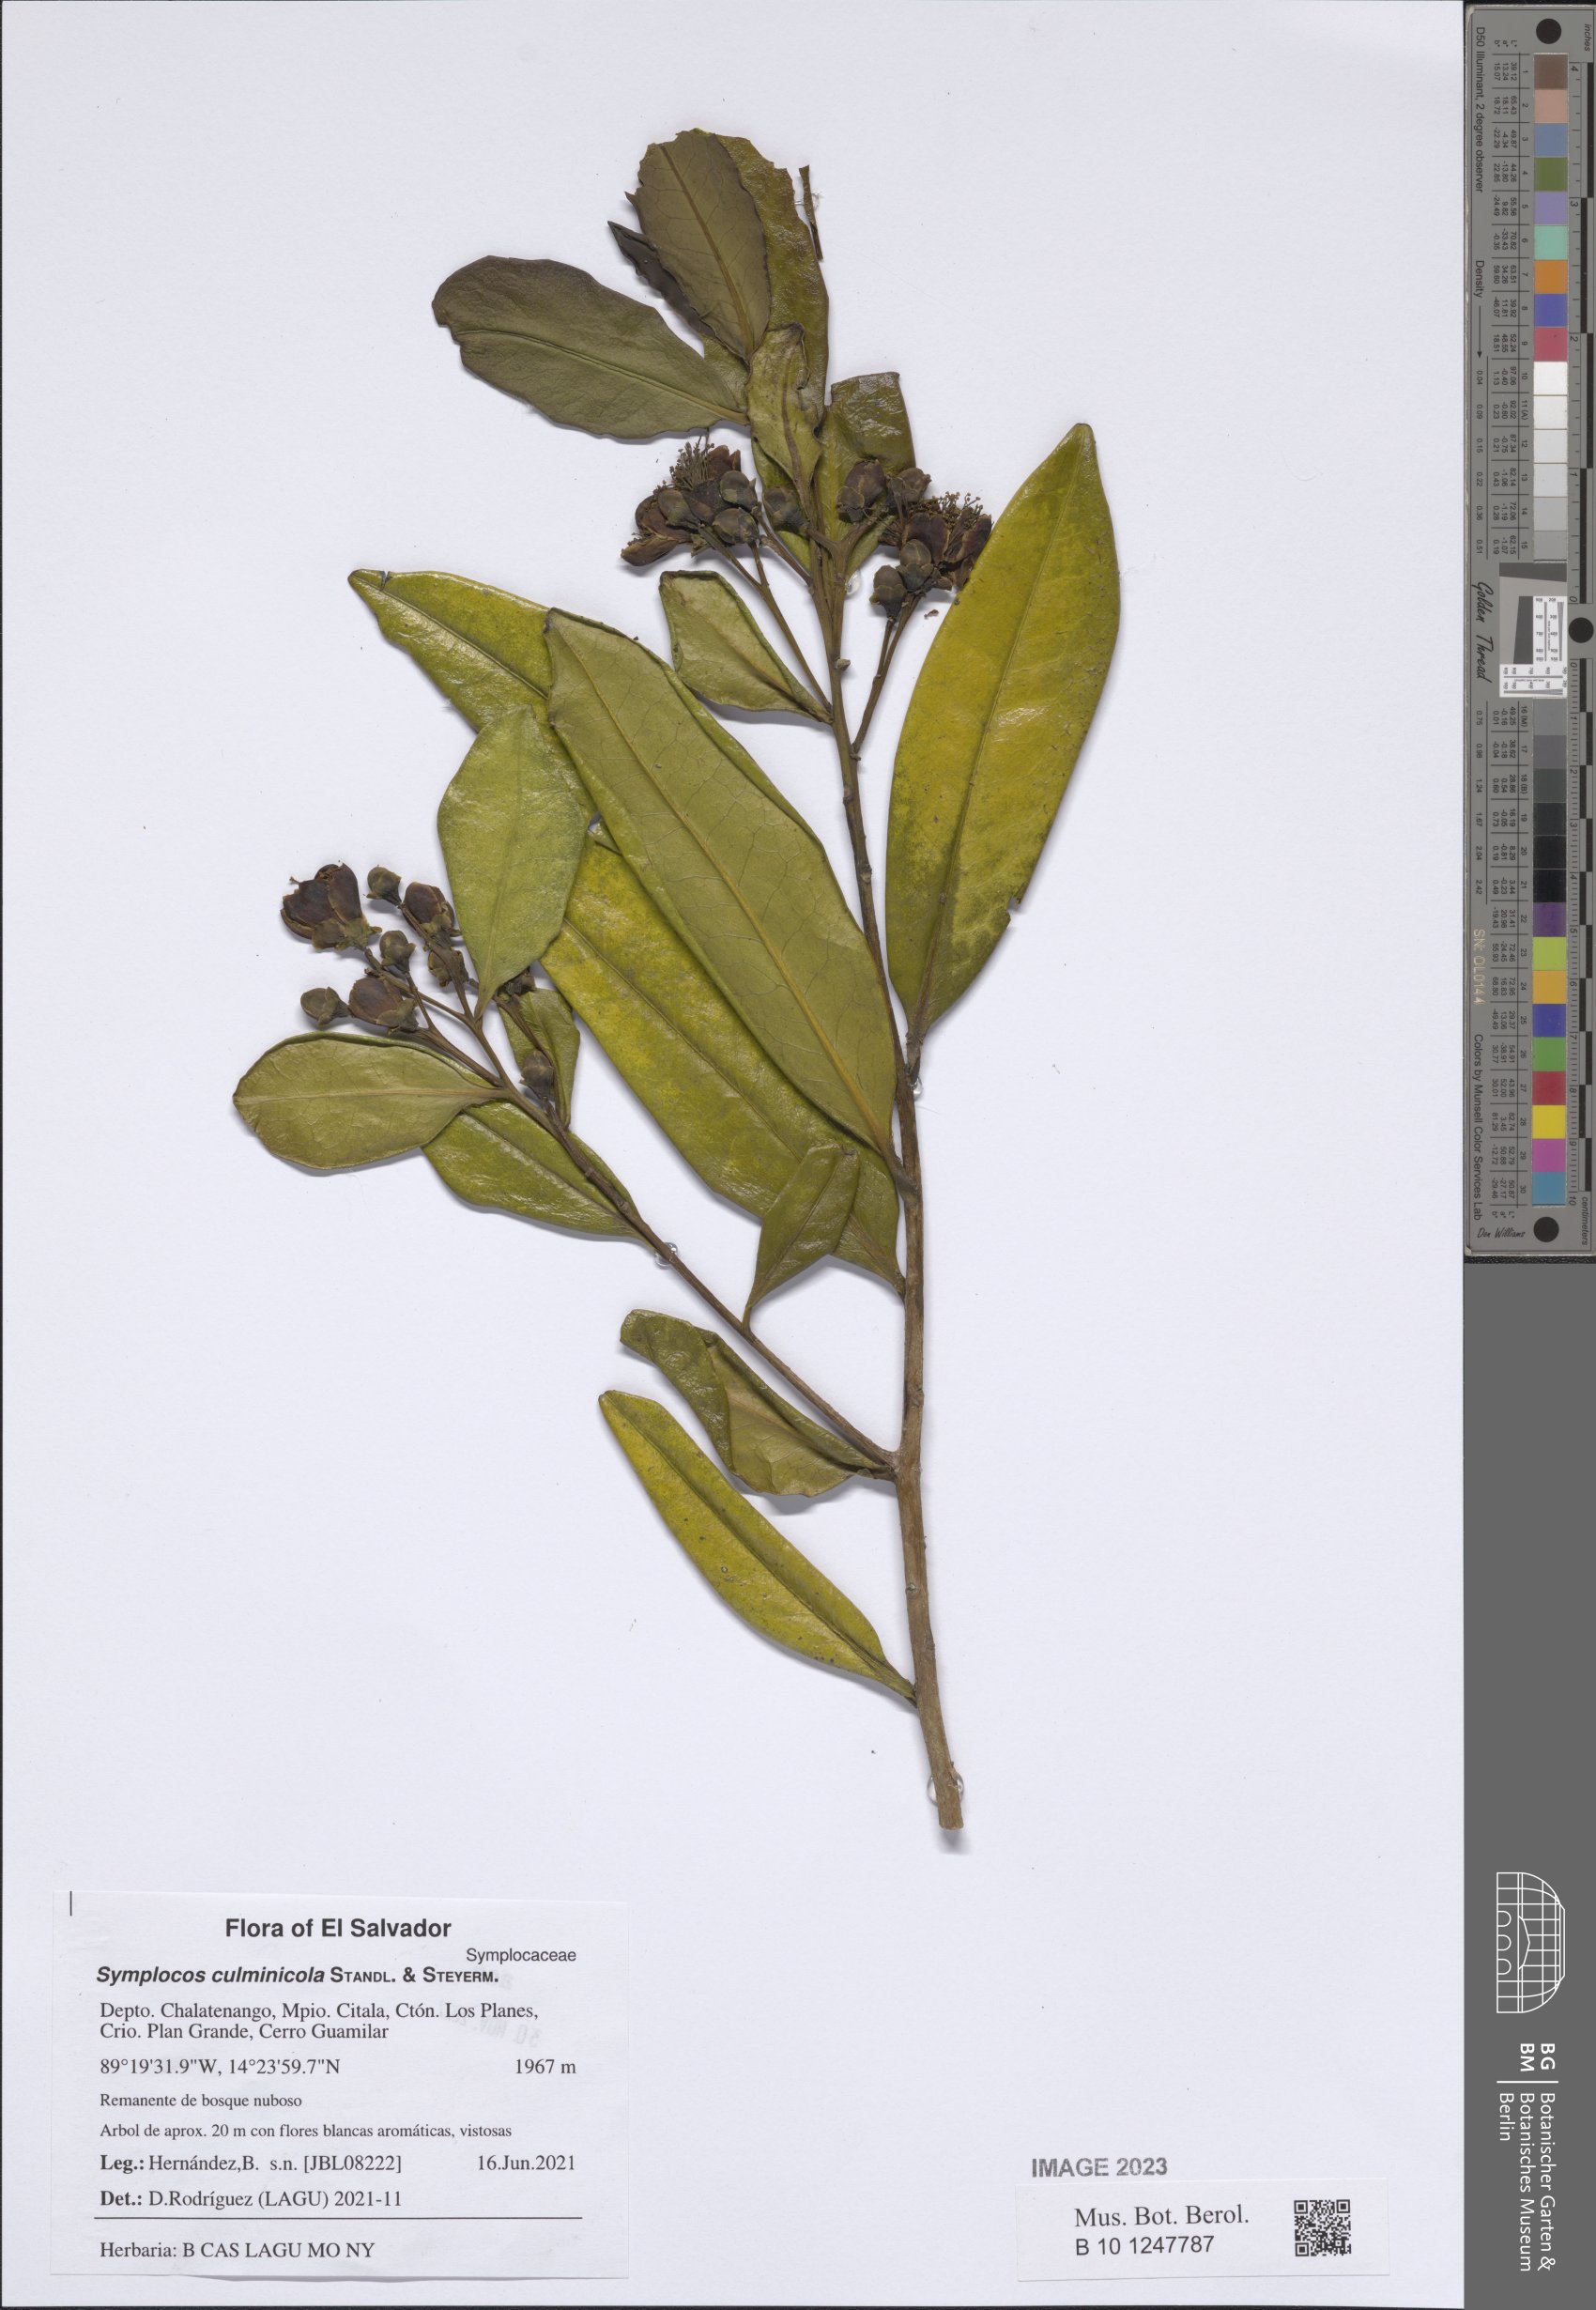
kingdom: Plantae
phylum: Tracheophyta
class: Magnoliopsida
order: Ericales
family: Symplocaceae
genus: Symplocos
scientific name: Symplocos culminicola
